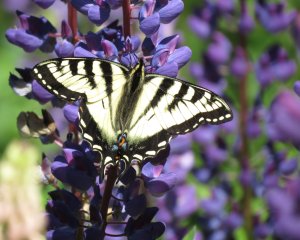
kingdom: Animalia
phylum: Arthropoda
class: Insecta
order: Lepidoptera
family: Papilionidae
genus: Pterourus
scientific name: Pterourus canadensis
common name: Canadian Tiger Swallowtail
